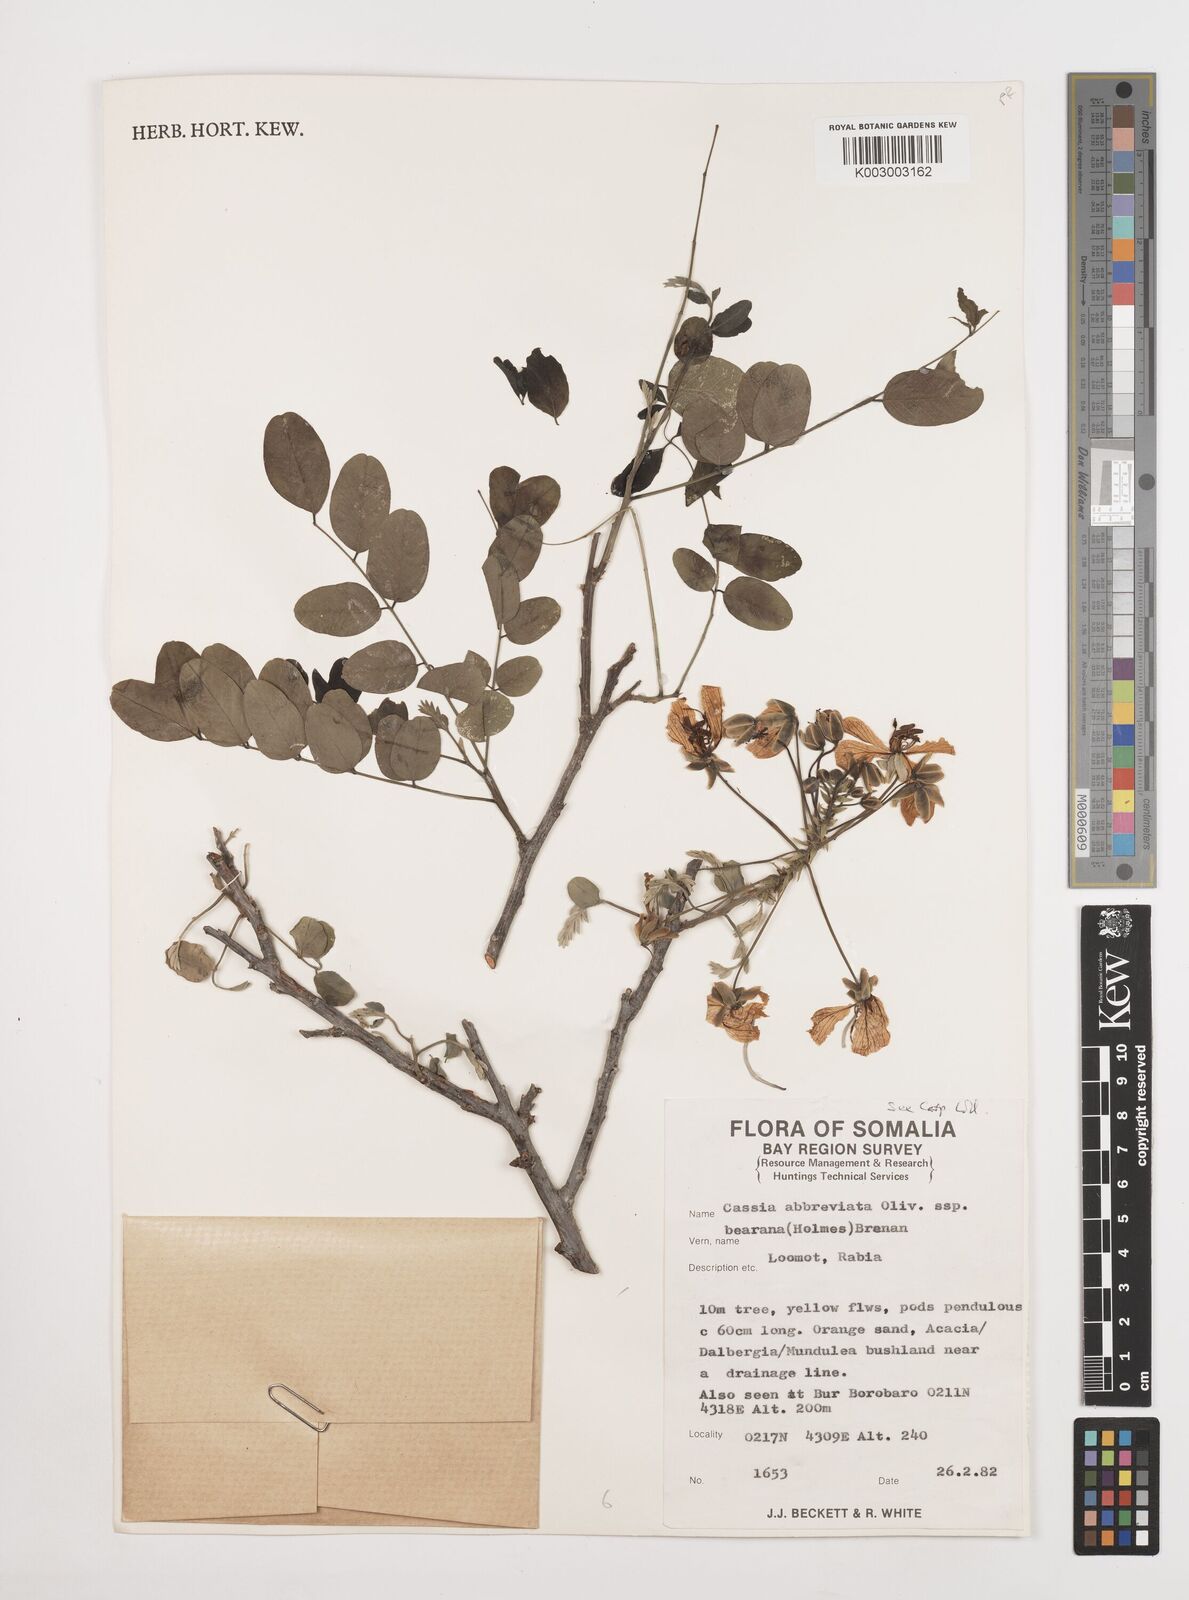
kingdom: Plantae
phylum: Tracheophyta
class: Magnoliopsida
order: Fabales
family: Fabaceae
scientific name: Fabaceae
